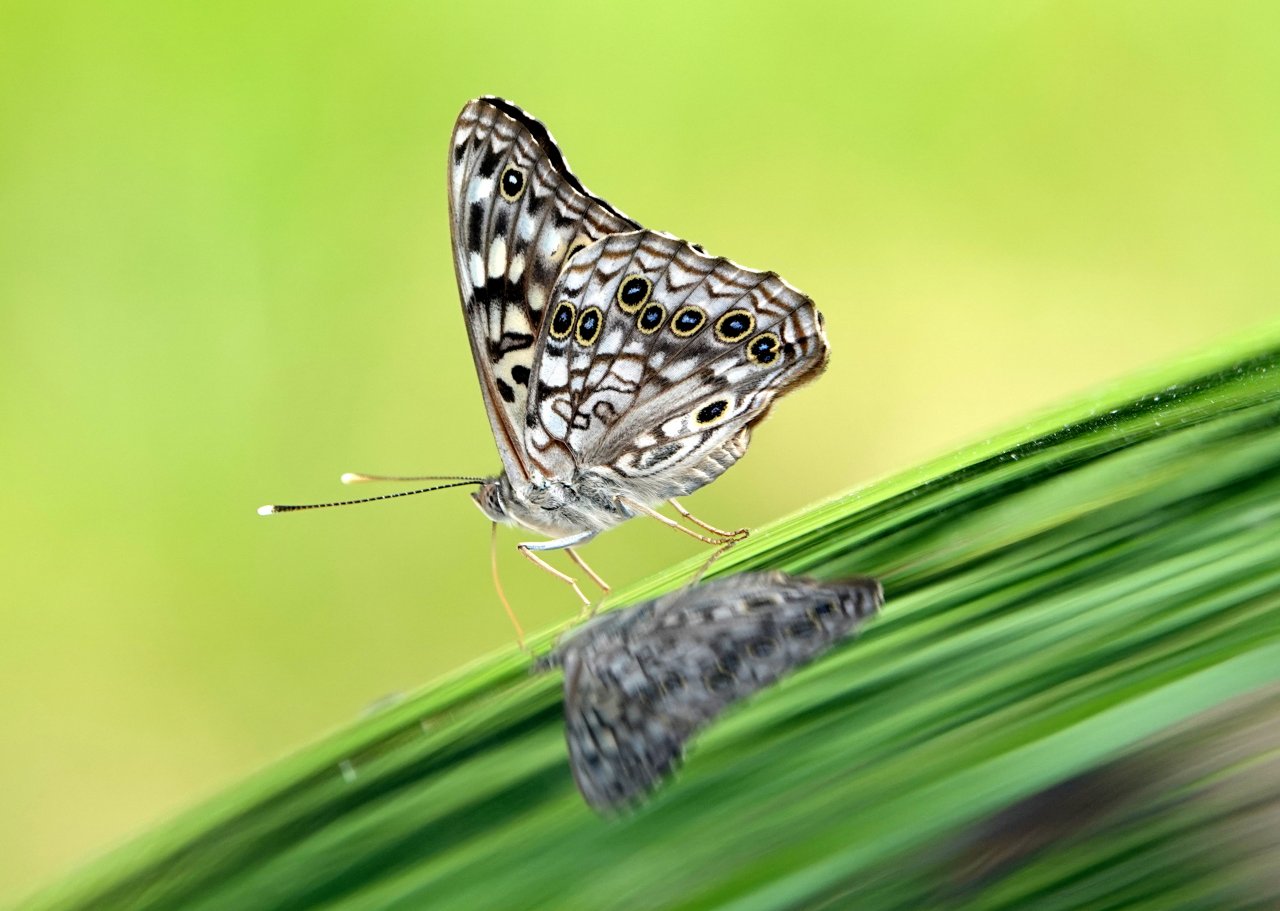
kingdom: Animalia
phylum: Arthropoda
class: Insecta
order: Lepidoptera
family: Nymphalidae
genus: Asterocampa
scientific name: Asterocampa celtis
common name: Hackberry Emperor
